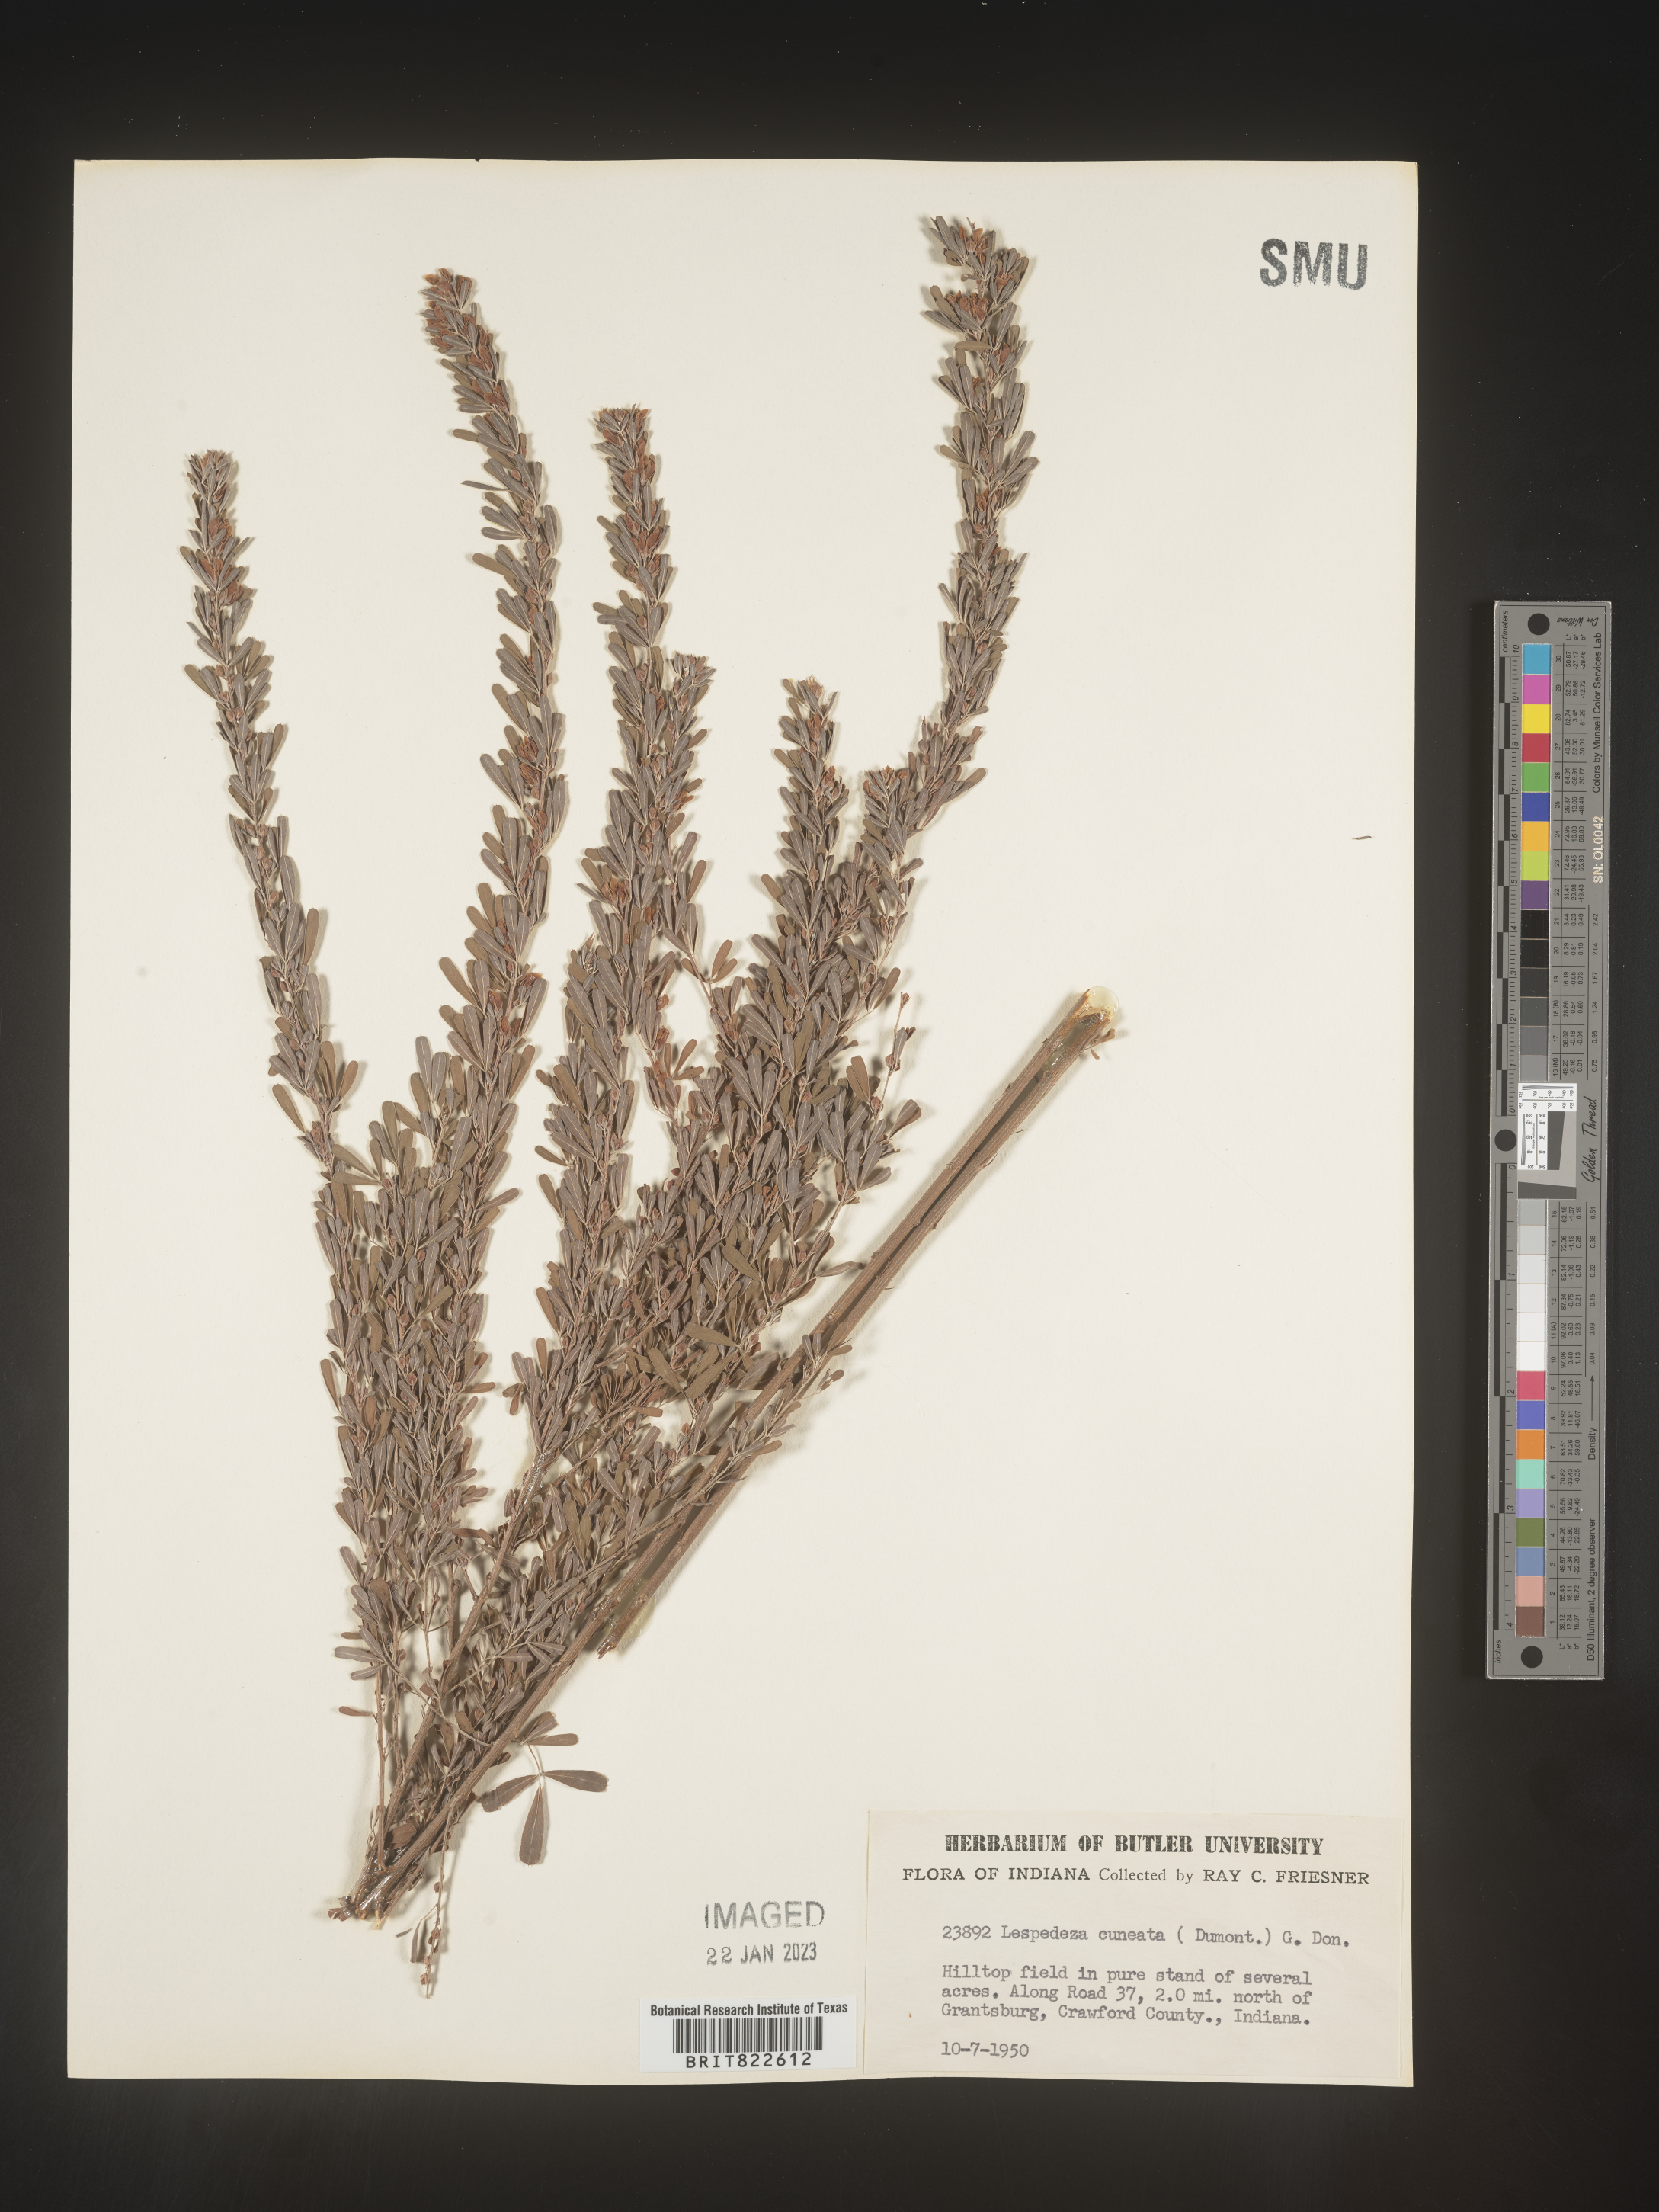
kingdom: Plantae
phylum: Tracheophyta
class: Magnoliopsida
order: Fabales
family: Fabaceae
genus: Lespedeza
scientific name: Lespedeza cuneata
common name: Chinese bush-clover
